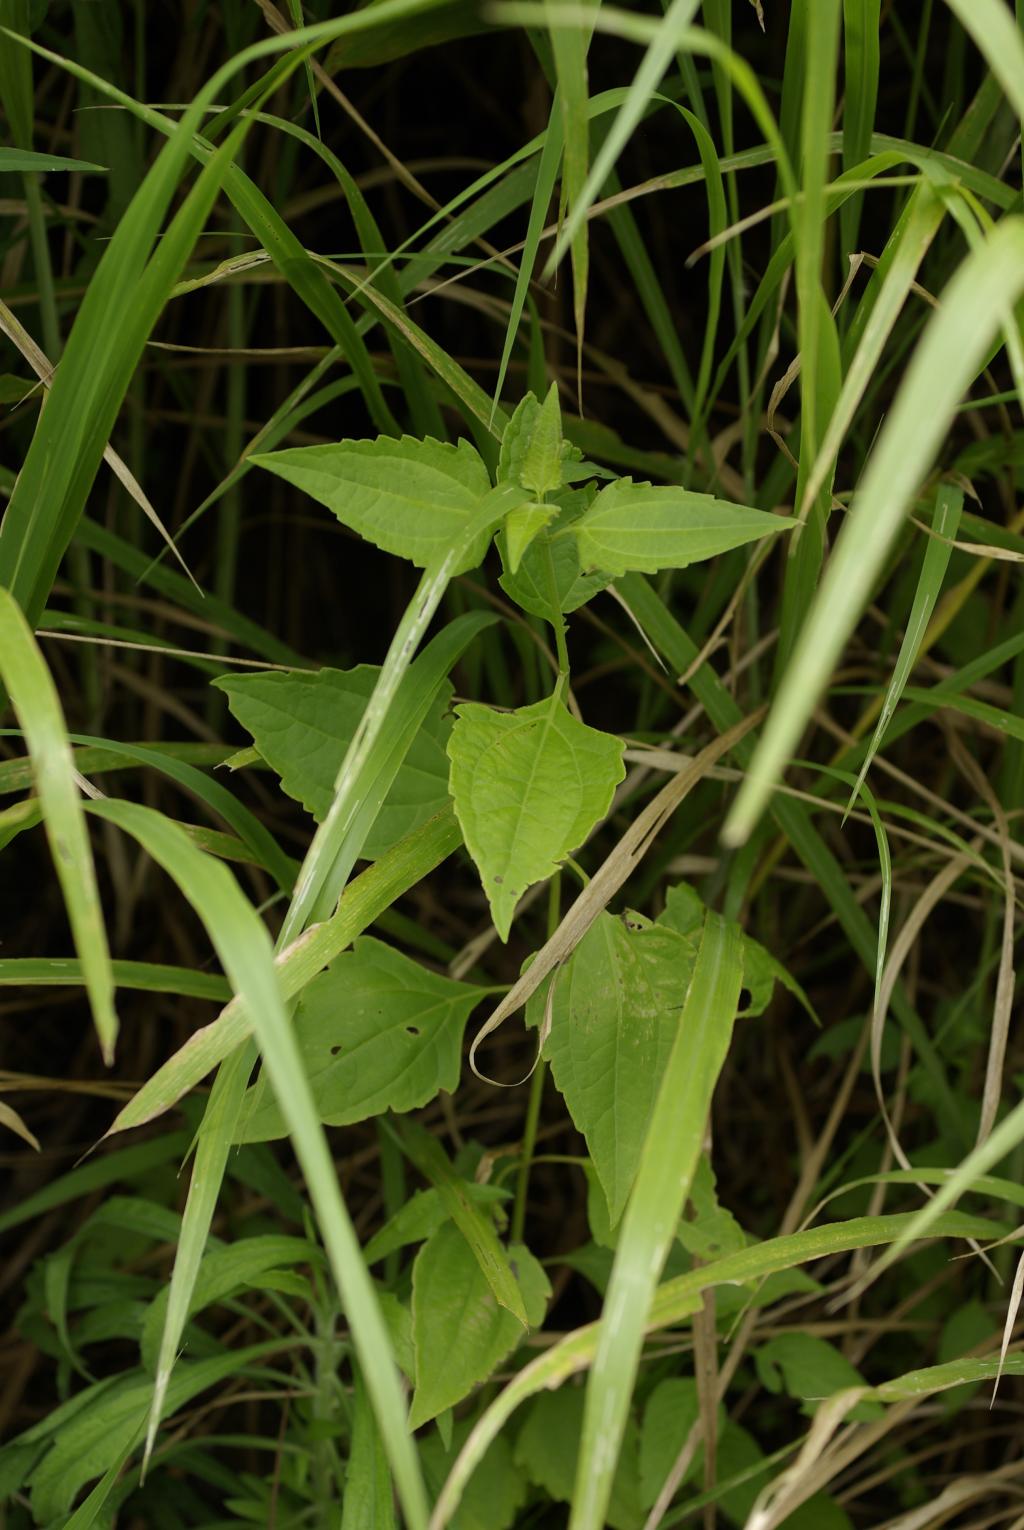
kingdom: Plantae
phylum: Tracheophyta
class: Magnoliopsida
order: Asterales
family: Asteraceae
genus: Chromolaena
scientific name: Chromolaena odorata
